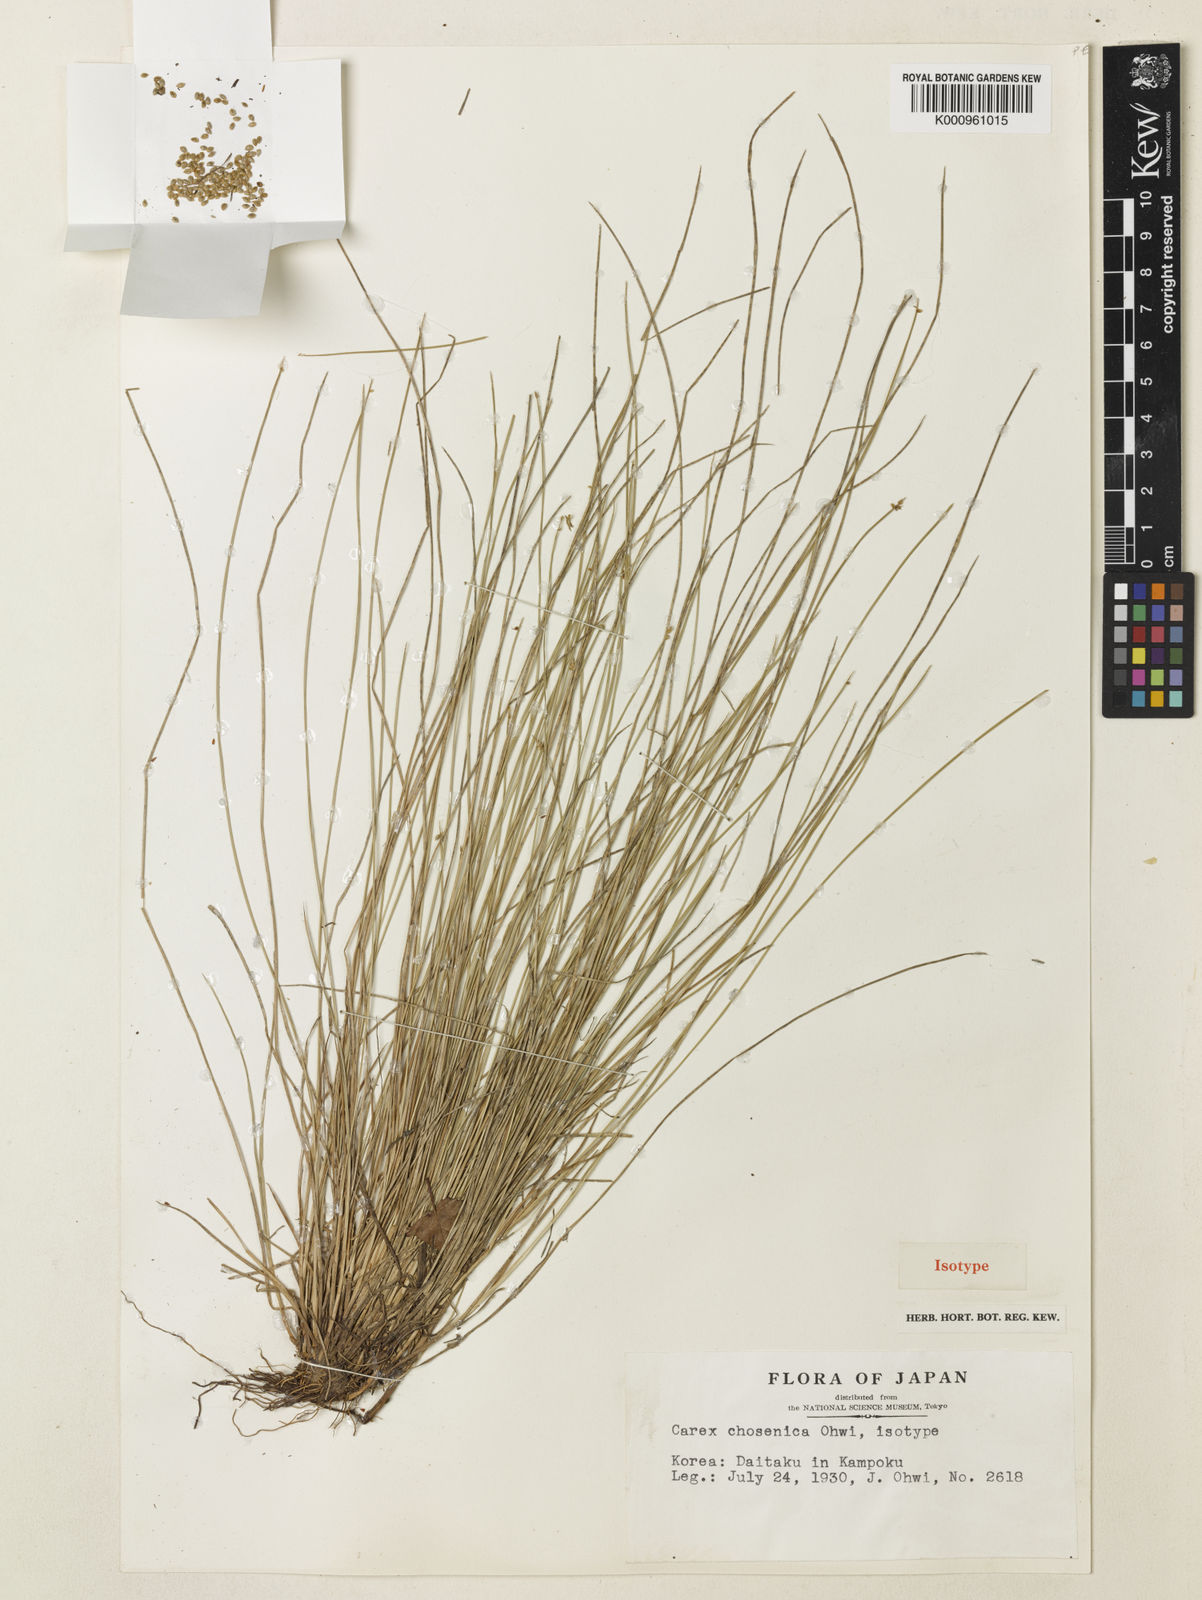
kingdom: Plantae
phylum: Tracheophyta
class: Liliopsida
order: Poales
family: Cyperaceae
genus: Carex
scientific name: Carex chosenica
